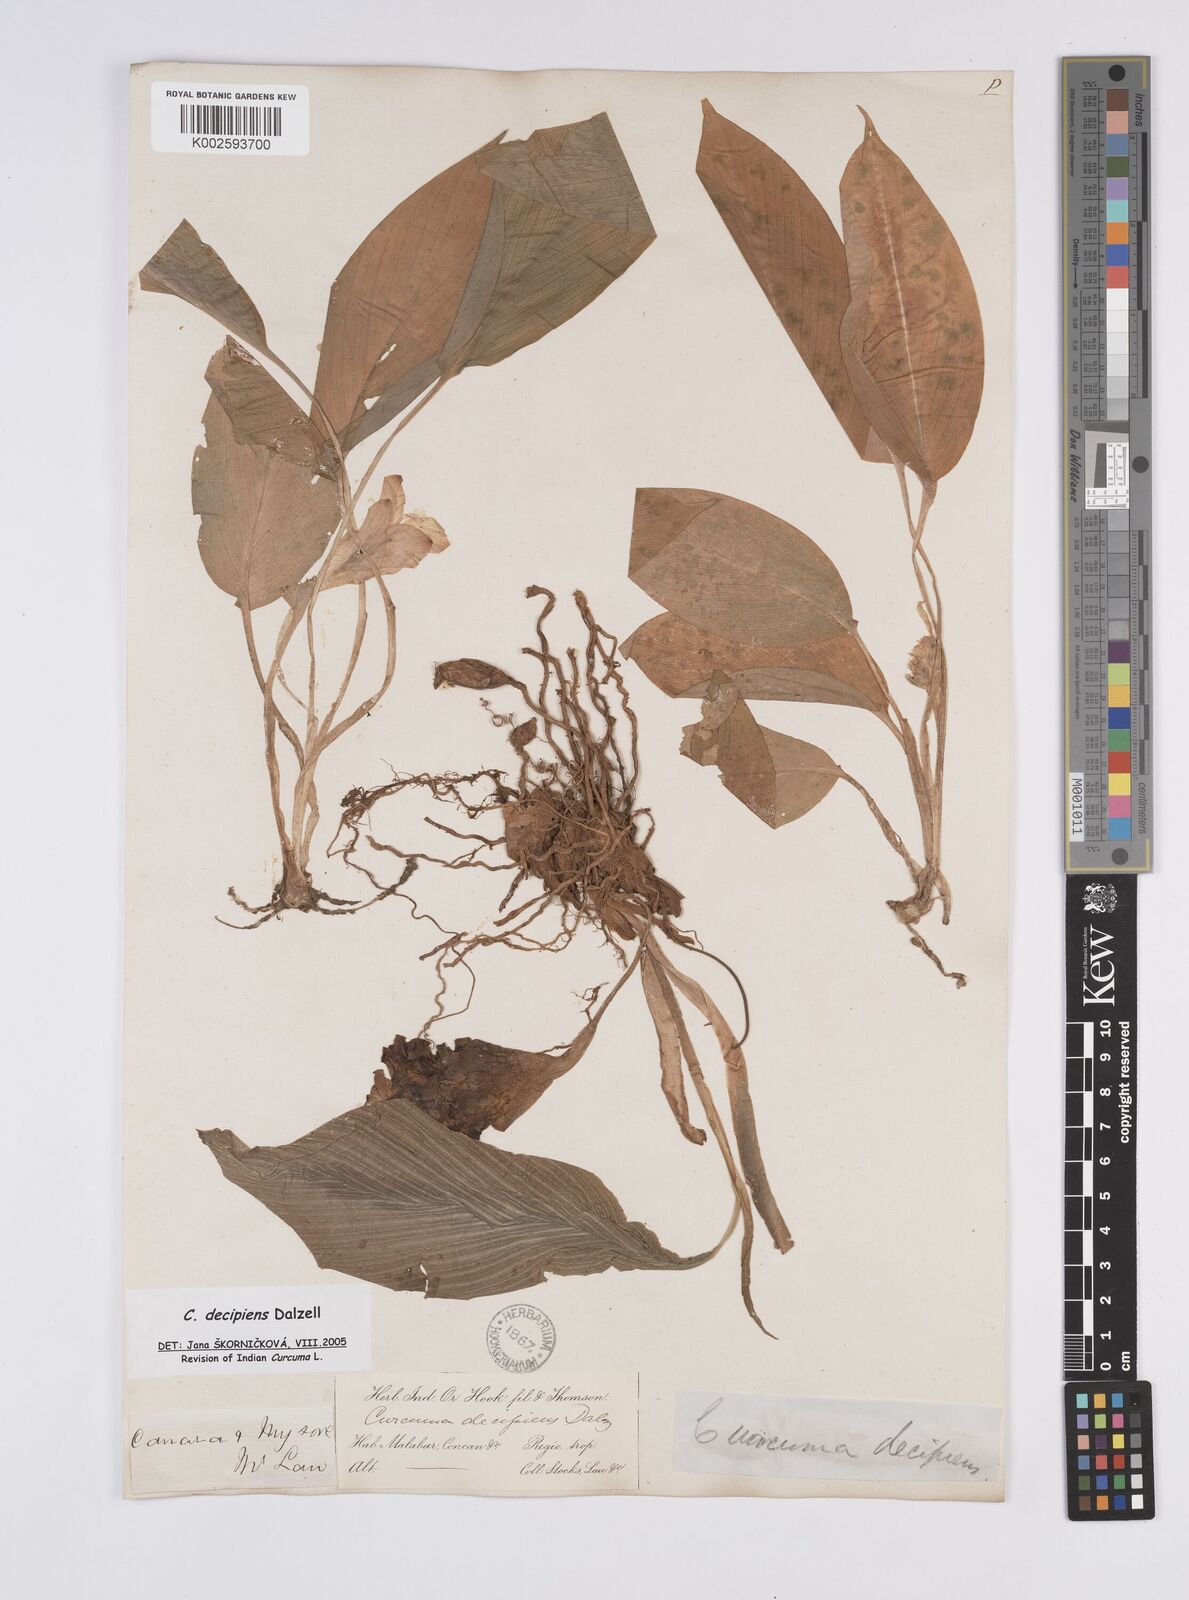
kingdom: Plantae
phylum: Tracheophyta
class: Liliopsida
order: Zingiberales
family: Zingiberaceae
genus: Curcuma
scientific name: Curcuma decipiens
